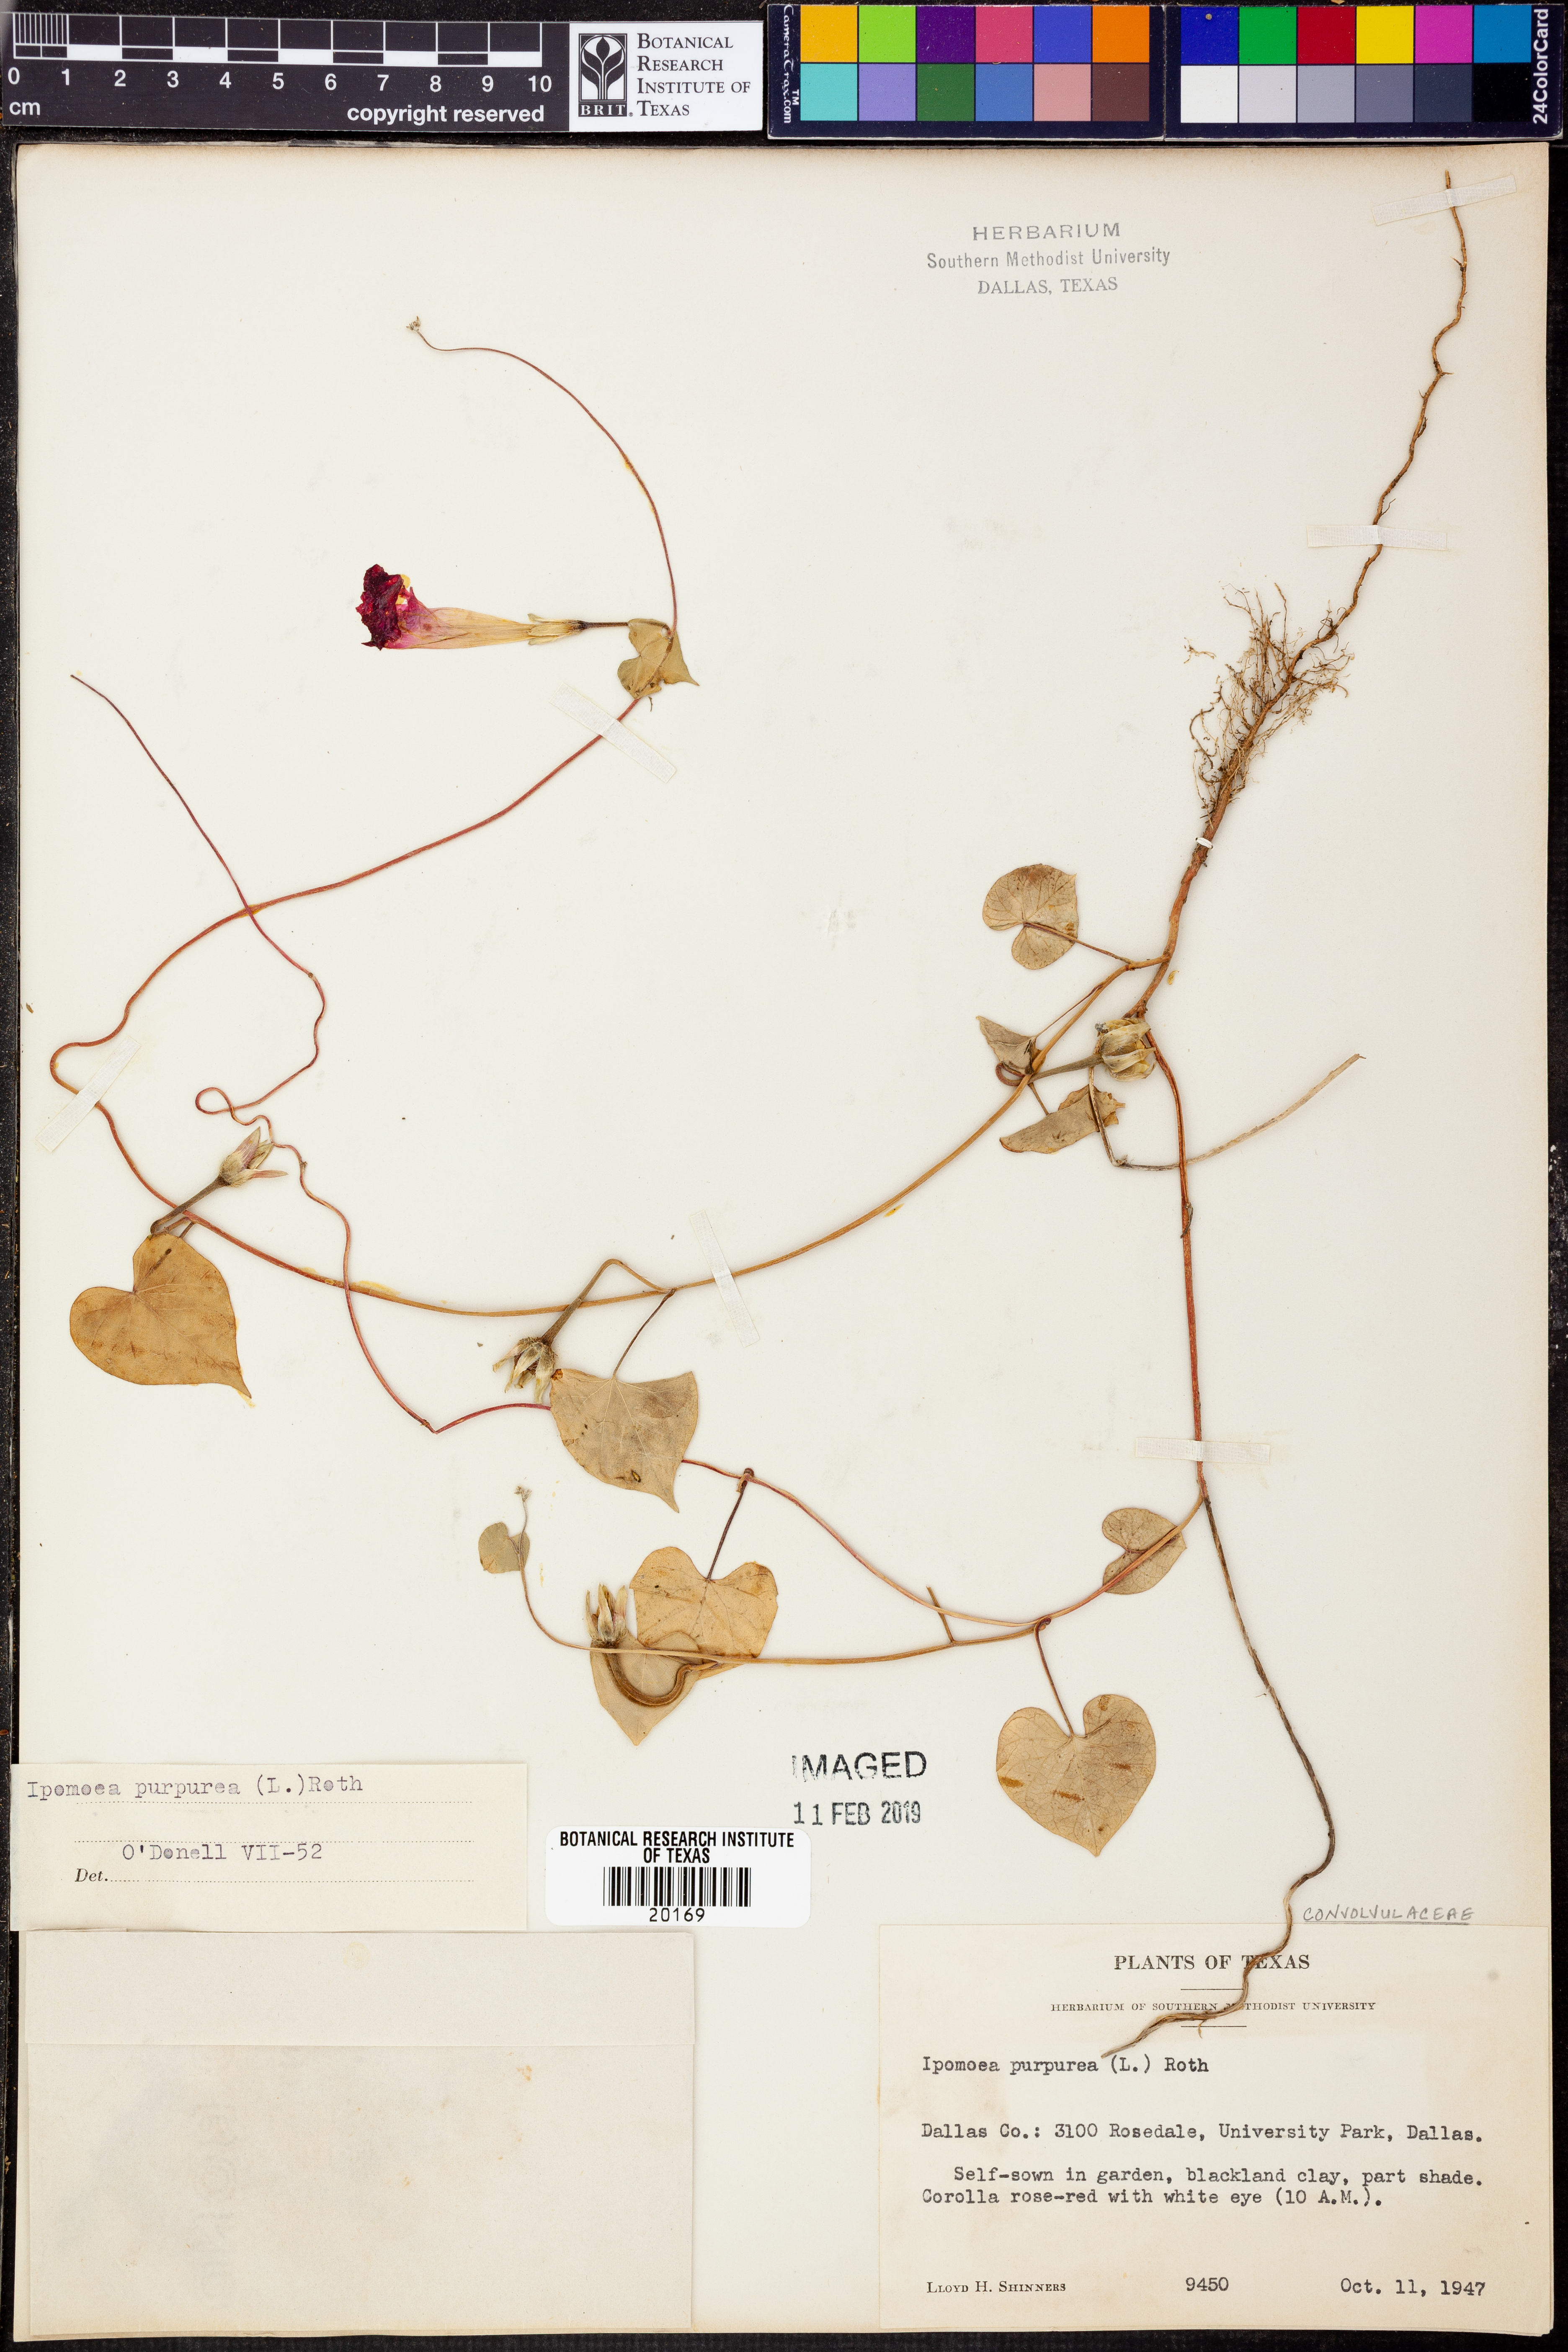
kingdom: Plantae
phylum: Tracheophyta
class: Magnoliopsida
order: Solanales
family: Convolvulaceae
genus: Ipomoea
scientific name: Ipomoea purpurea
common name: Common morning-glory
